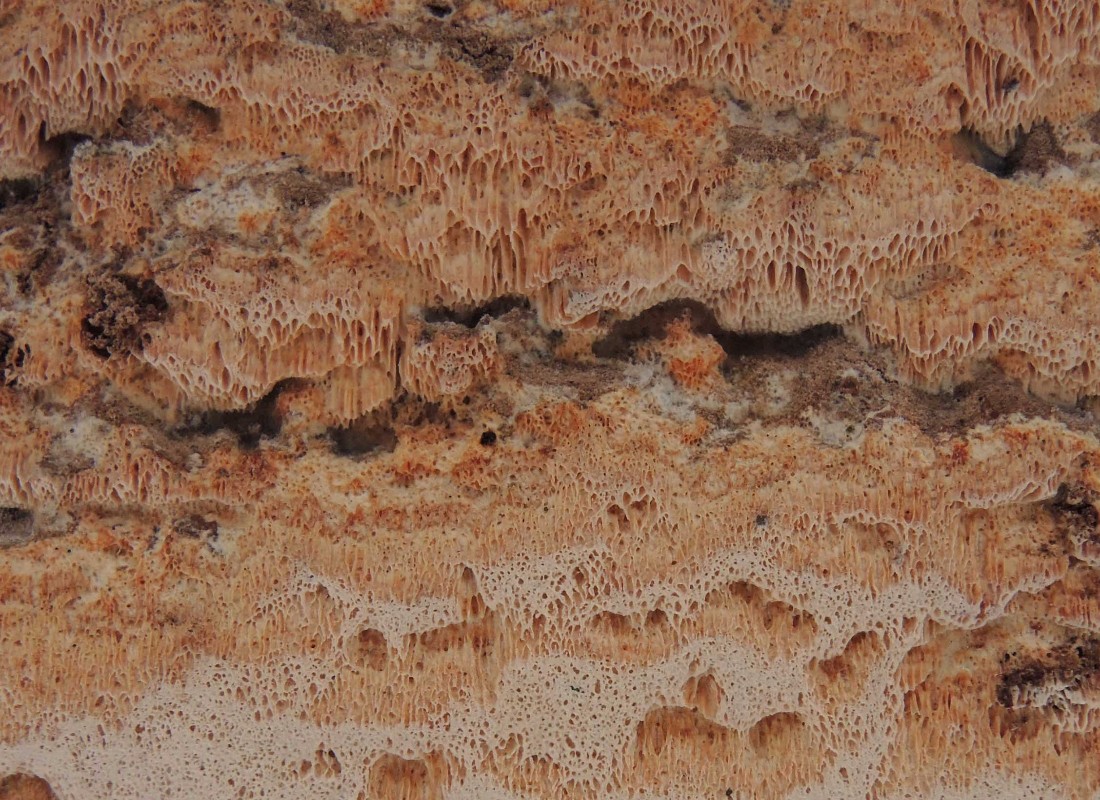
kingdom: Fungi
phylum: Basidiomycota
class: Agaricomycetes
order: Polyporales
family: Meruliaceae
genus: Mycoacia
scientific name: Mycoacia gilvescens
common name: rosa pastelporesvamp
